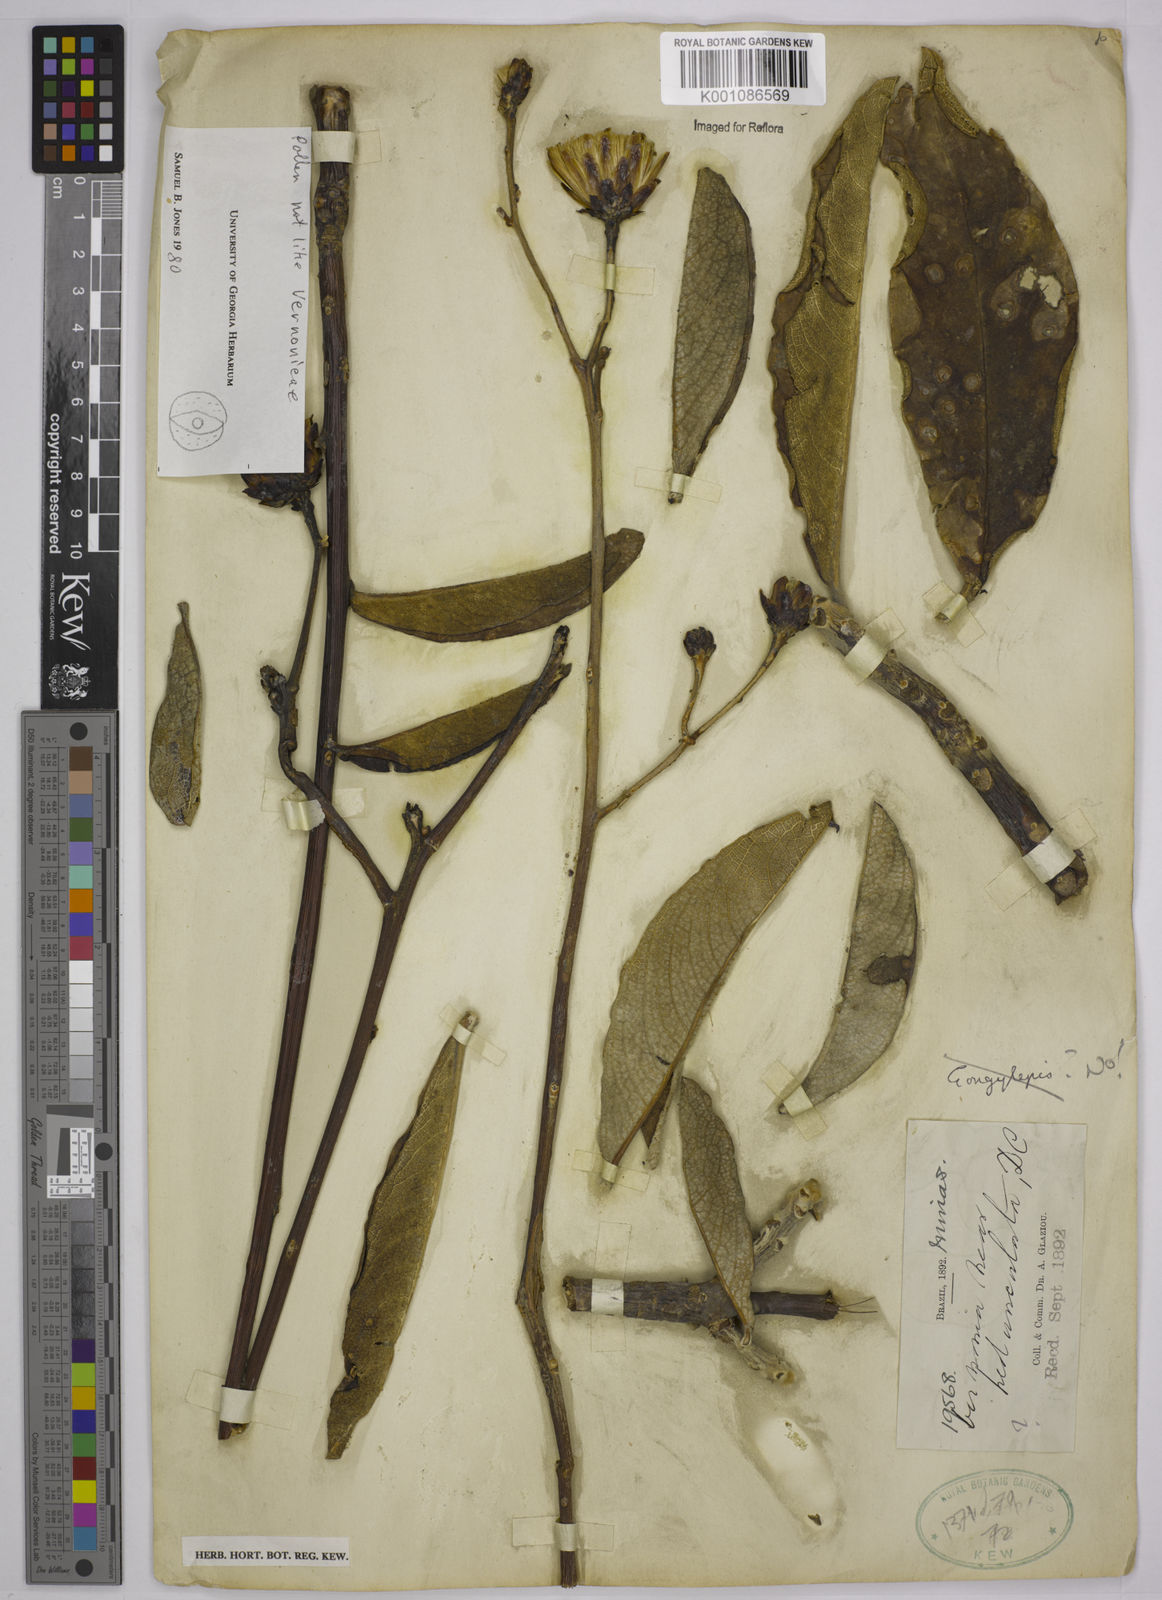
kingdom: Plantae
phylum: Tracheophyta
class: Magnoliopsida
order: Asterales
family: Asteraceae
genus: Wunderlichia
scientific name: Wunderlichia
